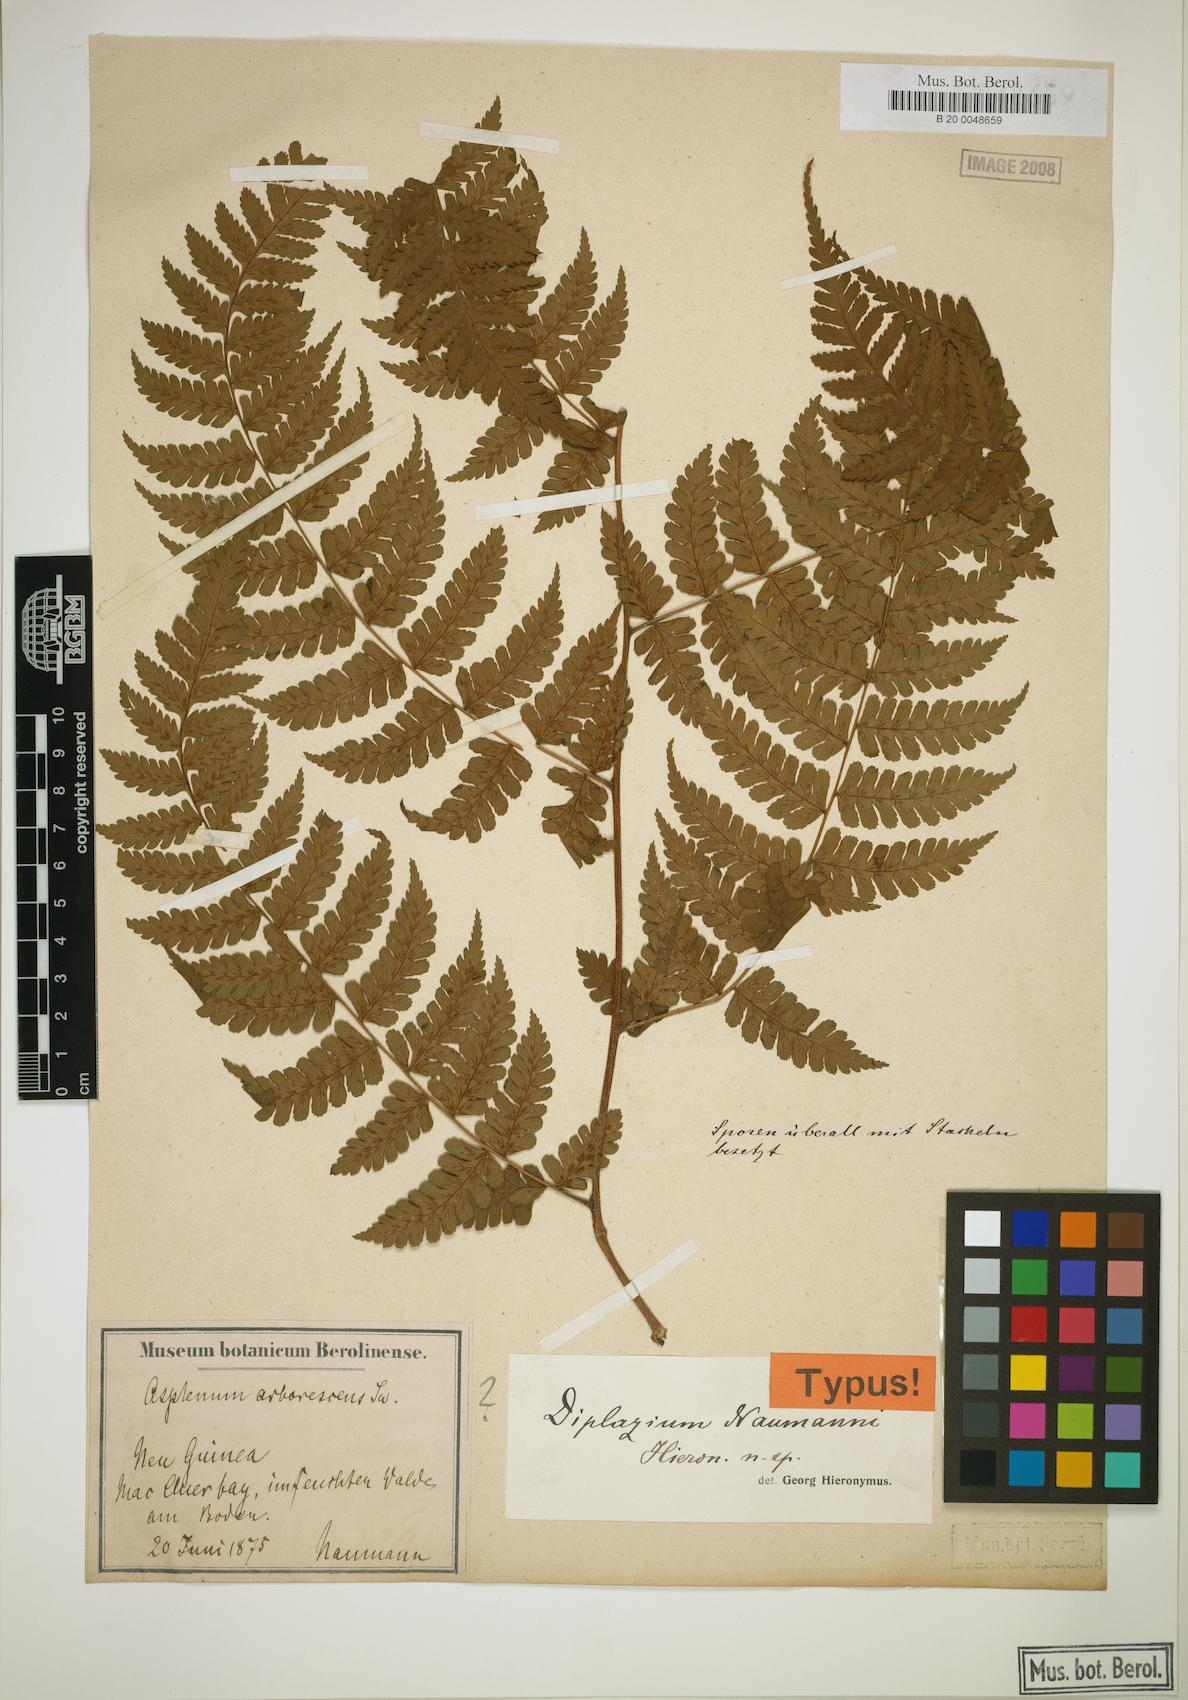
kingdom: Plantae
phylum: Tracheophyta
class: Polypodiopsida
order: Polypodiales
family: Athyriaceae
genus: Diplazium
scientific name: Diplazium prolongatum
